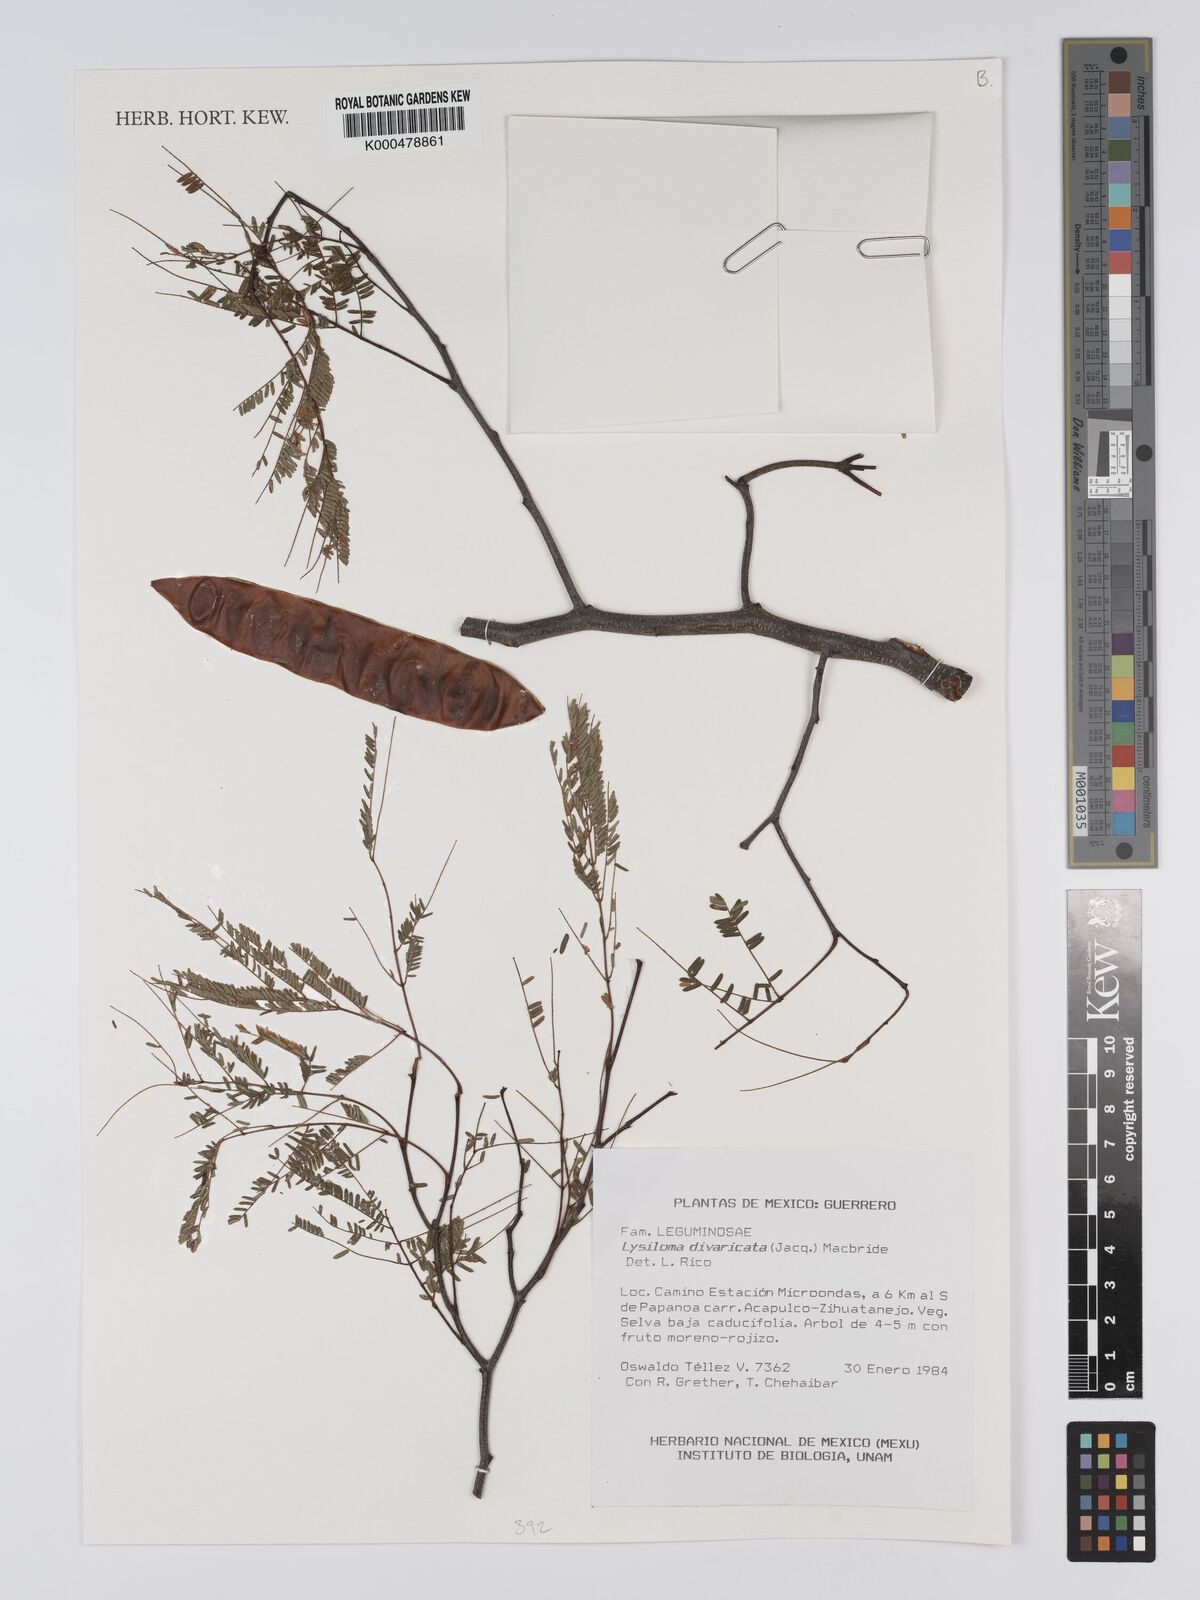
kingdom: Plantae
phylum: Tracheophyta
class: Magnoliopsida
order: Fabales
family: Fabaceae
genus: Lysiloma
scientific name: Lysiloma divaricatum
